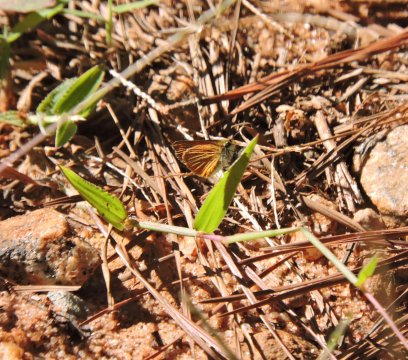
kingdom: Animalia
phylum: Arthropoda
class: Insecta
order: Lepidoptera
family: Hesperiidae
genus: Ancyloxypha
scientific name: Ancyloxypha numitor
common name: Least Skipper
